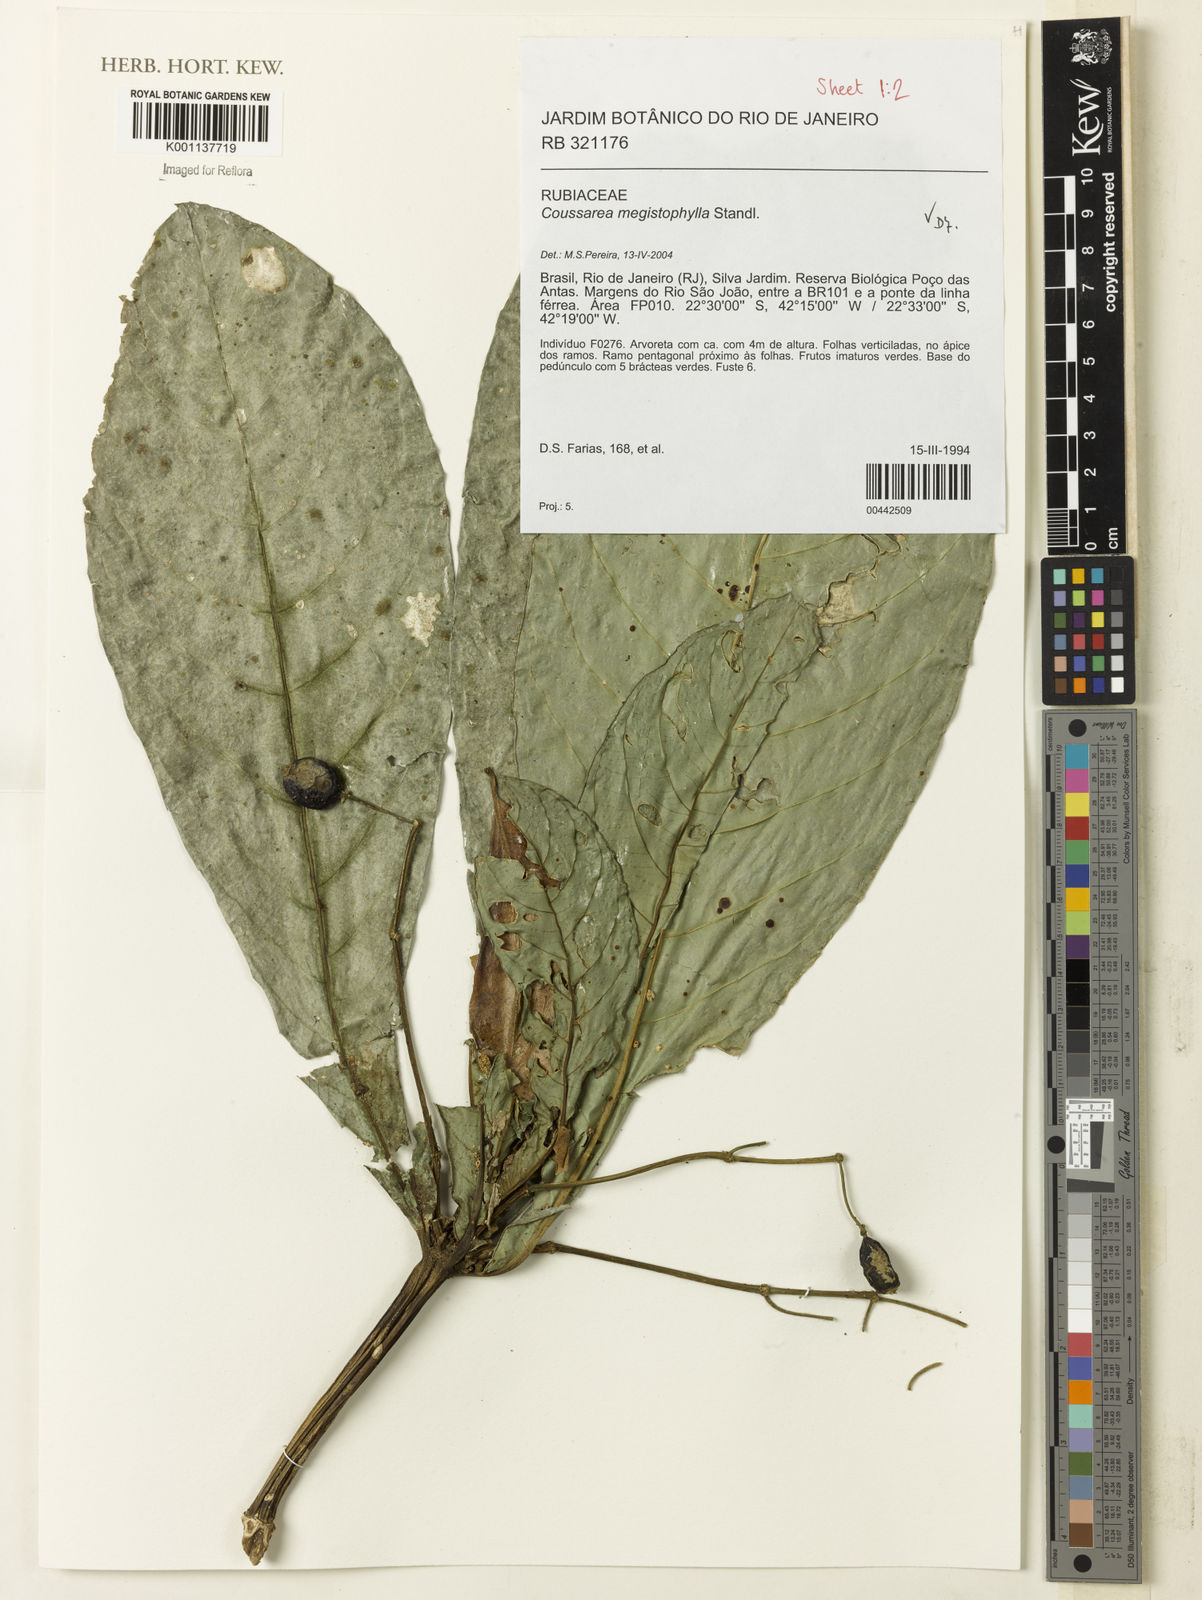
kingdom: Plantae
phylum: Tracheophyta
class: Magnoliopsida
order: Gentianales
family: Rubiaceae
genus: Coussarea
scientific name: Coussarea megistophylla
